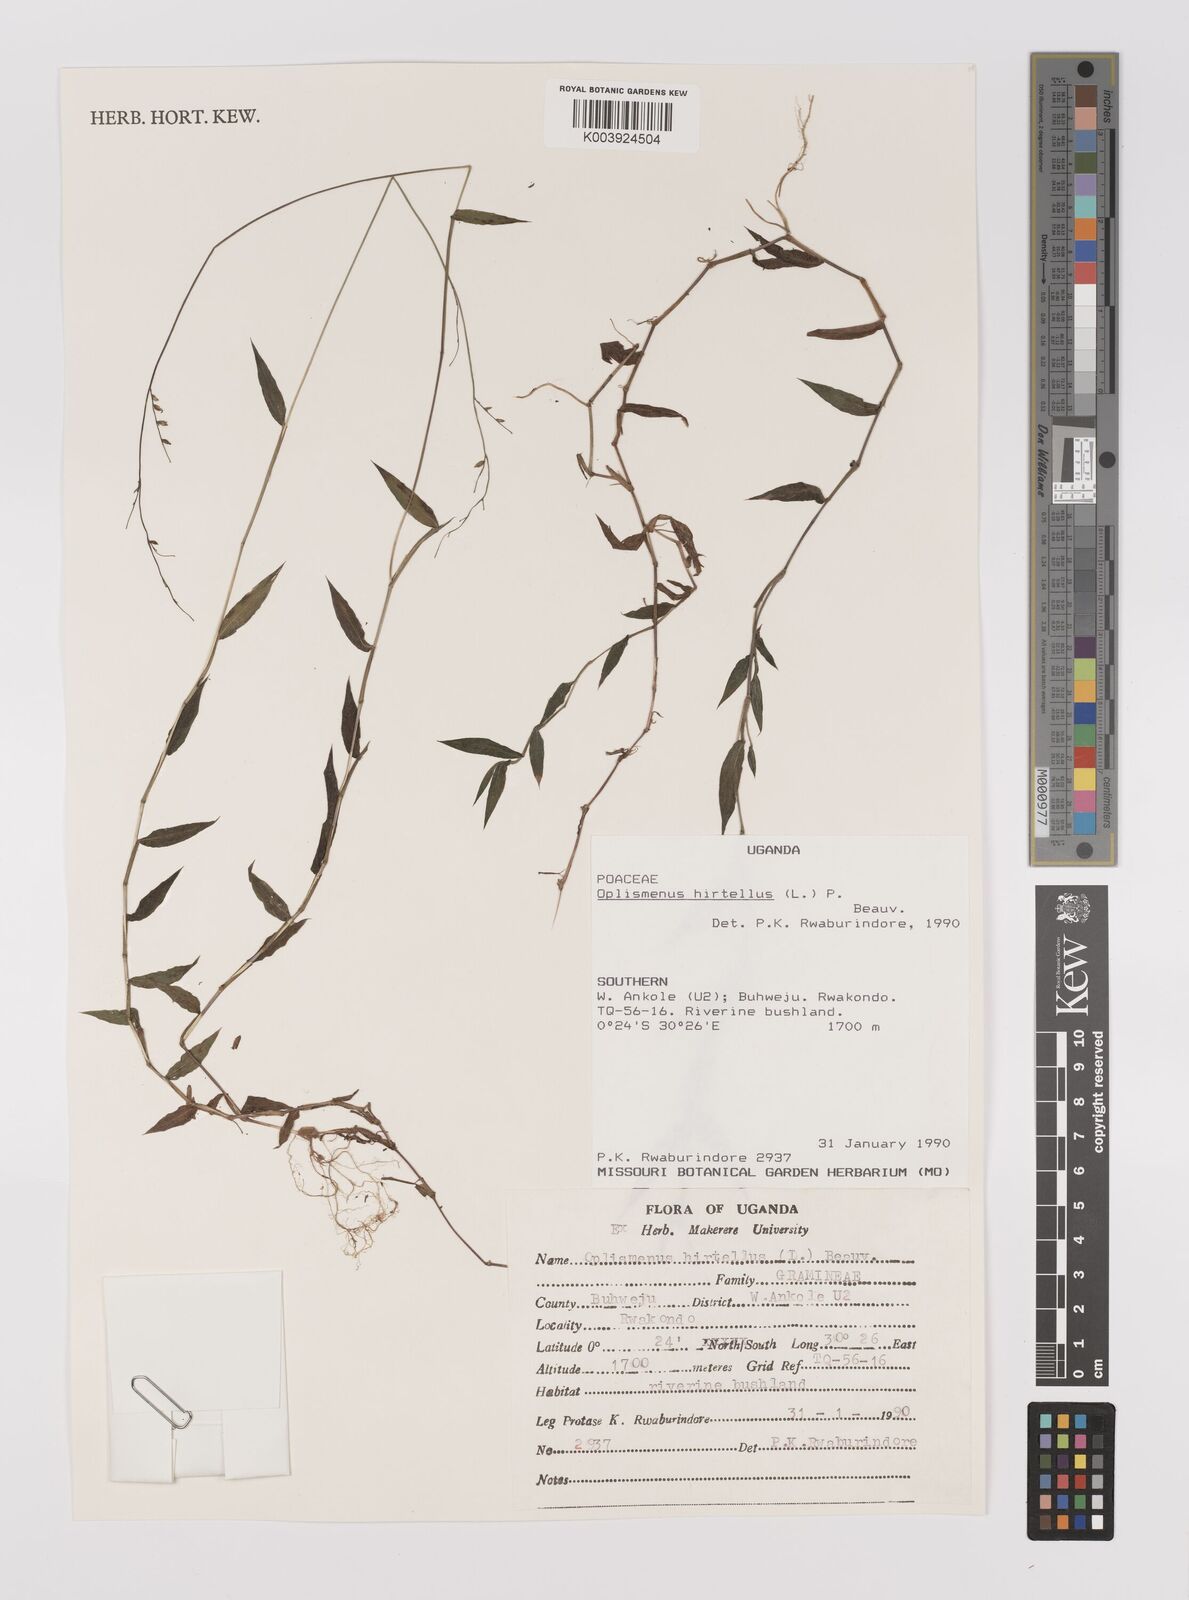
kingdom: Plantae
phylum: Tracheophyta
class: Liliopsida
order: Poales
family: Poaceae
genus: Oplismenus
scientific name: Oplismenus hirtellus
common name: Basketgrass
